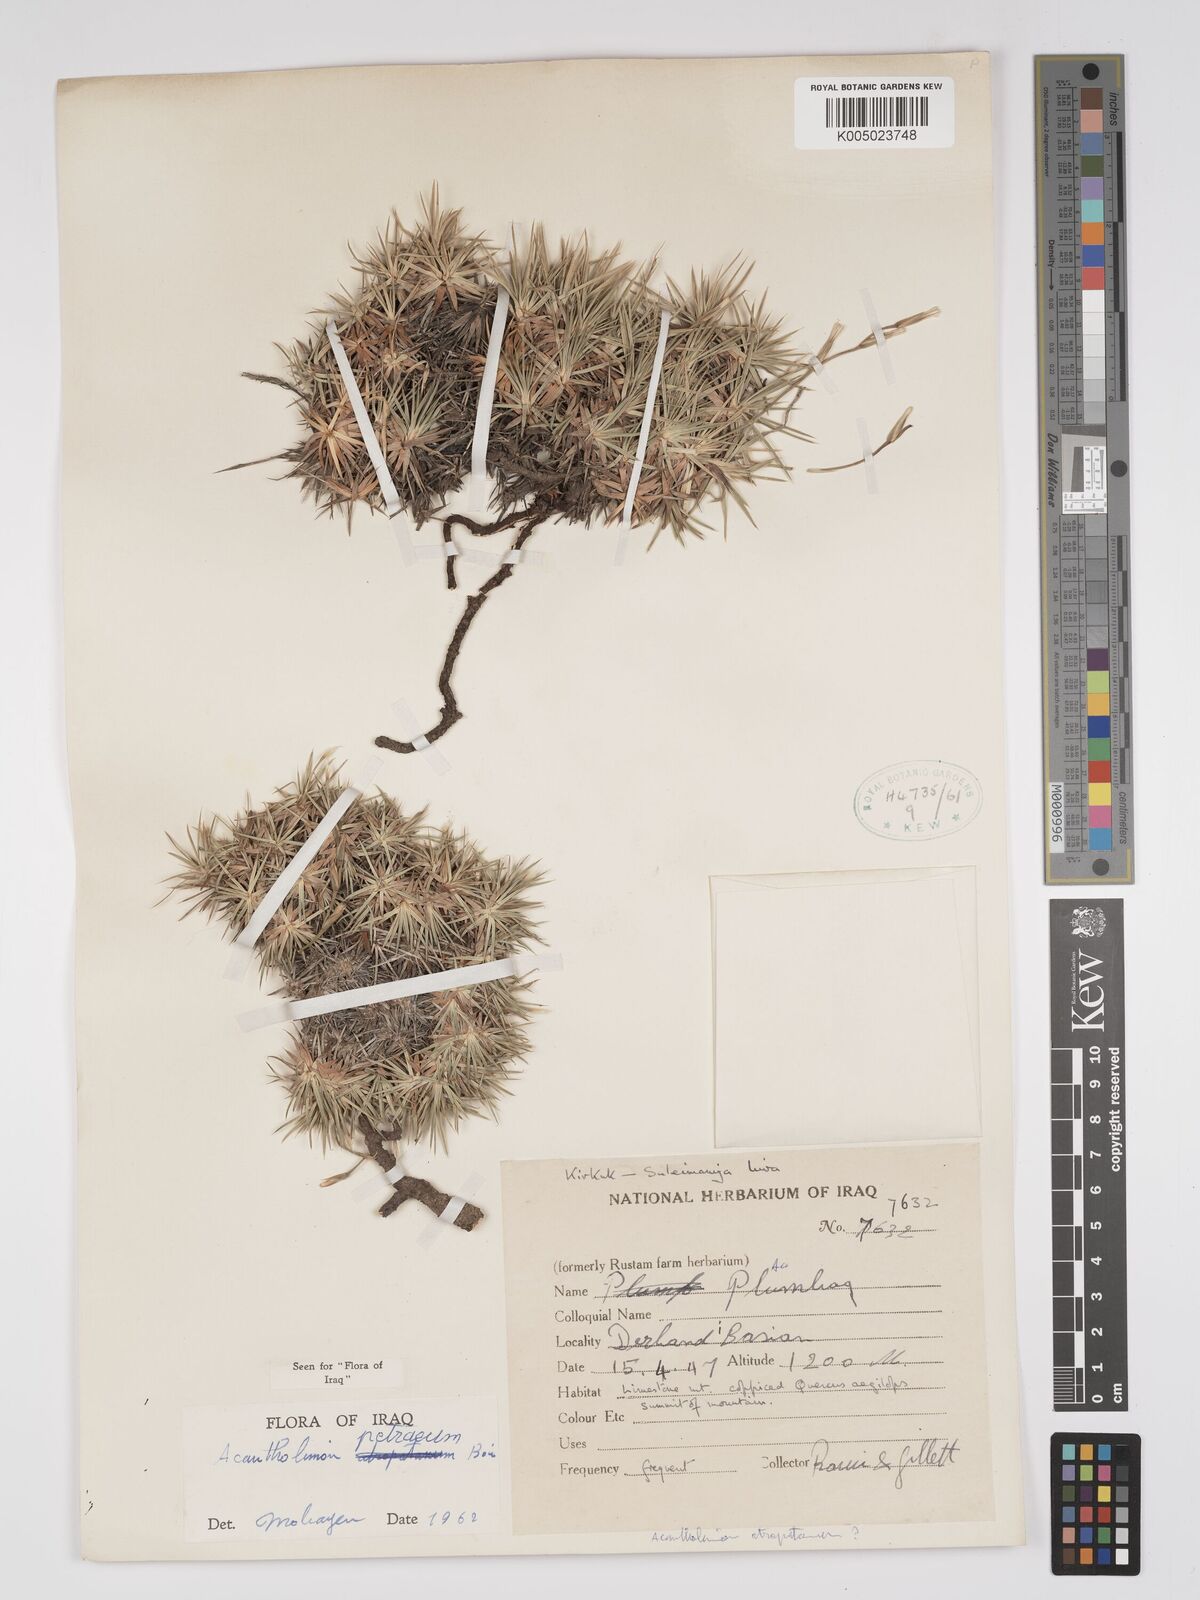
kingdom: Plantae
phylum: Tracheophyta
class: Magnoliopsida
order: Caryophyllales
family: Plumbaginaceae
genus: Acantholimon
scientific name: Acantholimon petraeum
